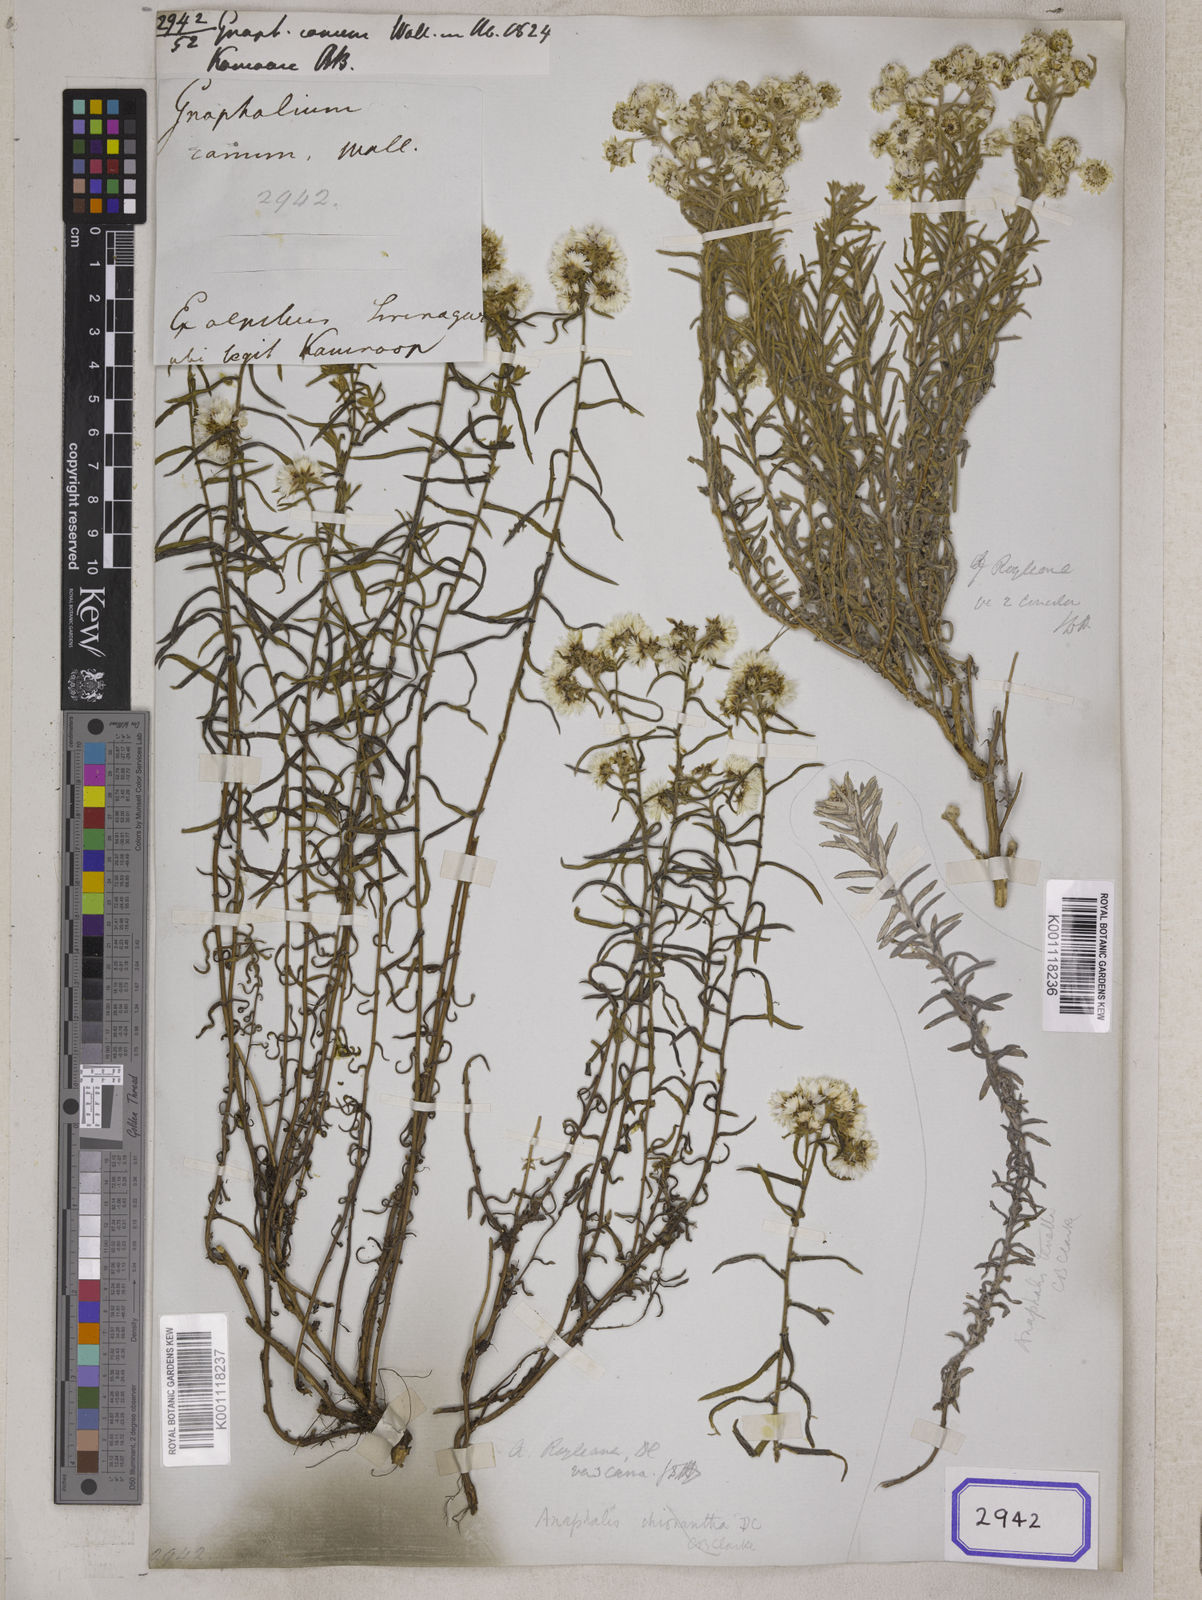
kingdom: Plantae
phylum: Tracheophyta
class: Magnoliopsida
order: Asterales
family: Asteraceae
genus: Anaphalis
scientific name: Anaphalis royleana
